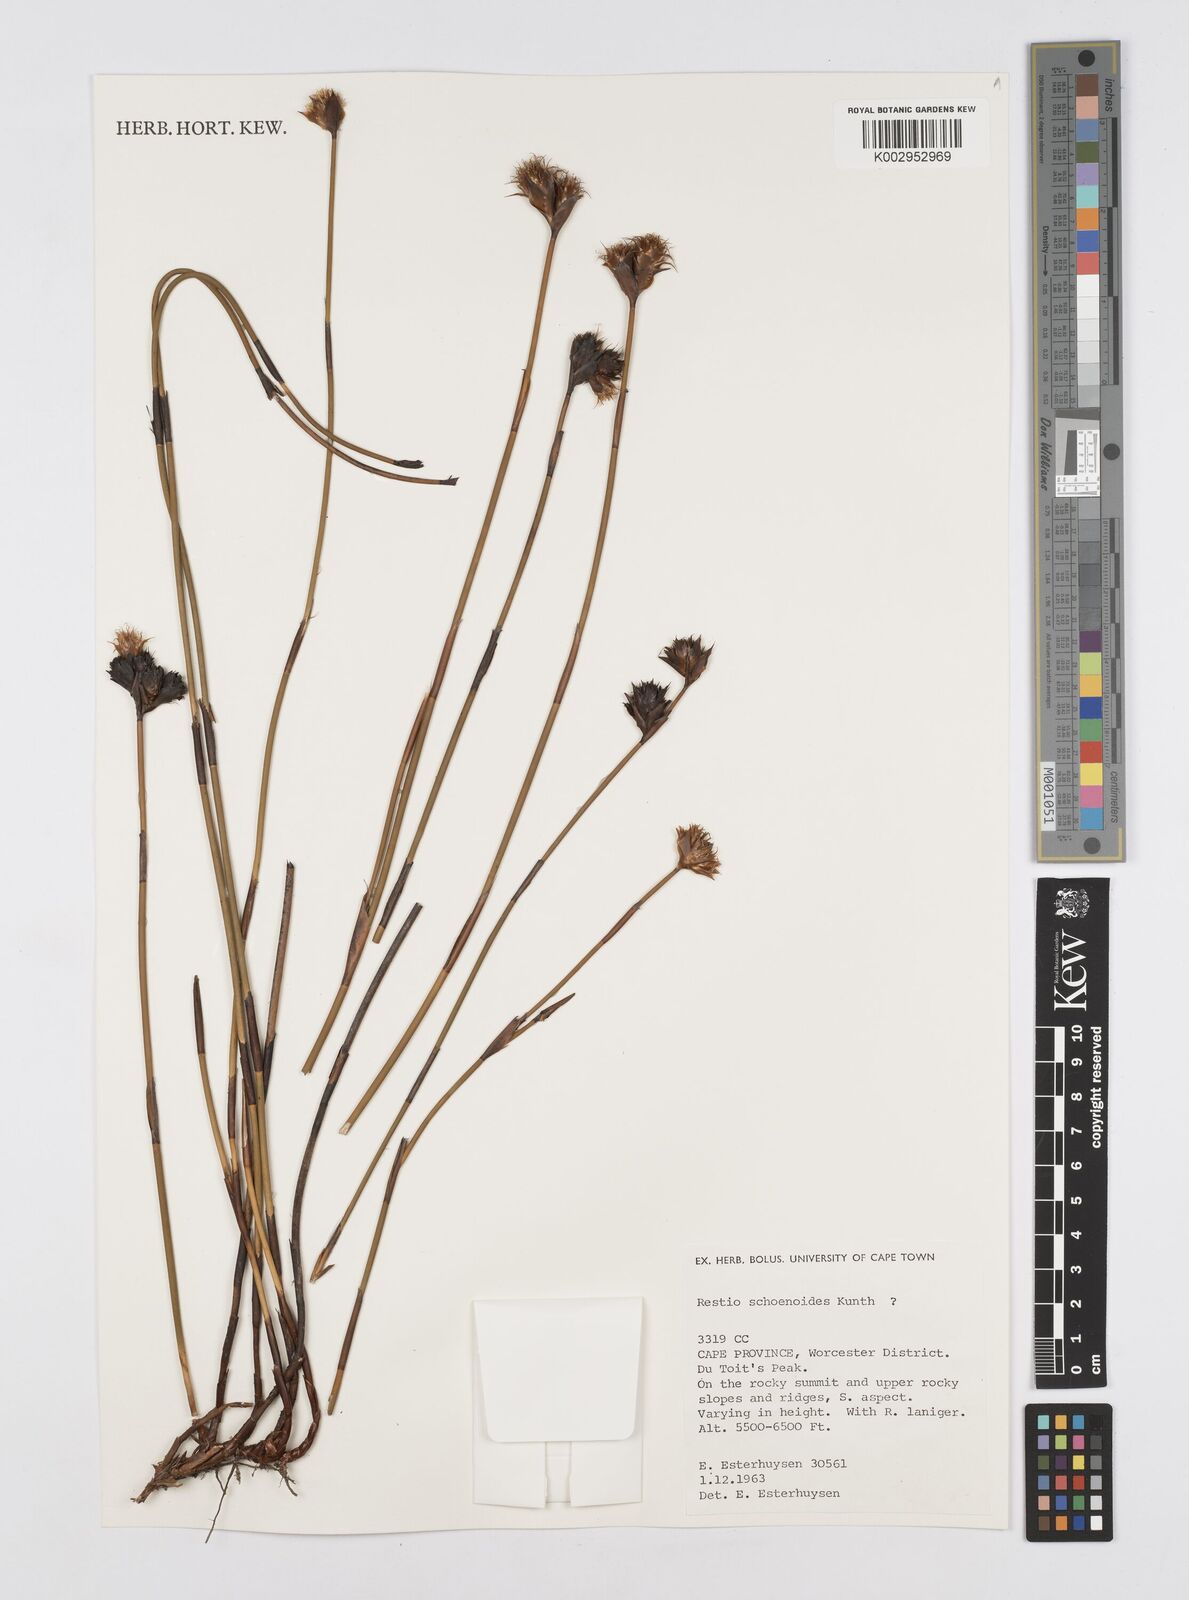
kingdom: Plantae
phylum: Tracheophyta
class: Liliopsida
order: Poales
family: Restionaceae
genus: Restio
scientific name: Restio schoenoides
